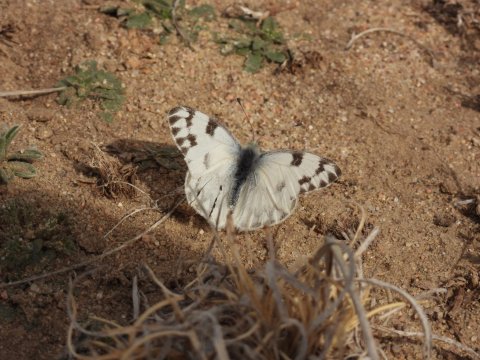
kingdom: Animalia
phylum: Arthropoda
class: Insecta
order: Lepidoptera
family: Pieridae
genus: Pontia
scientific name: Pontia protodice
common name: Checkered White
